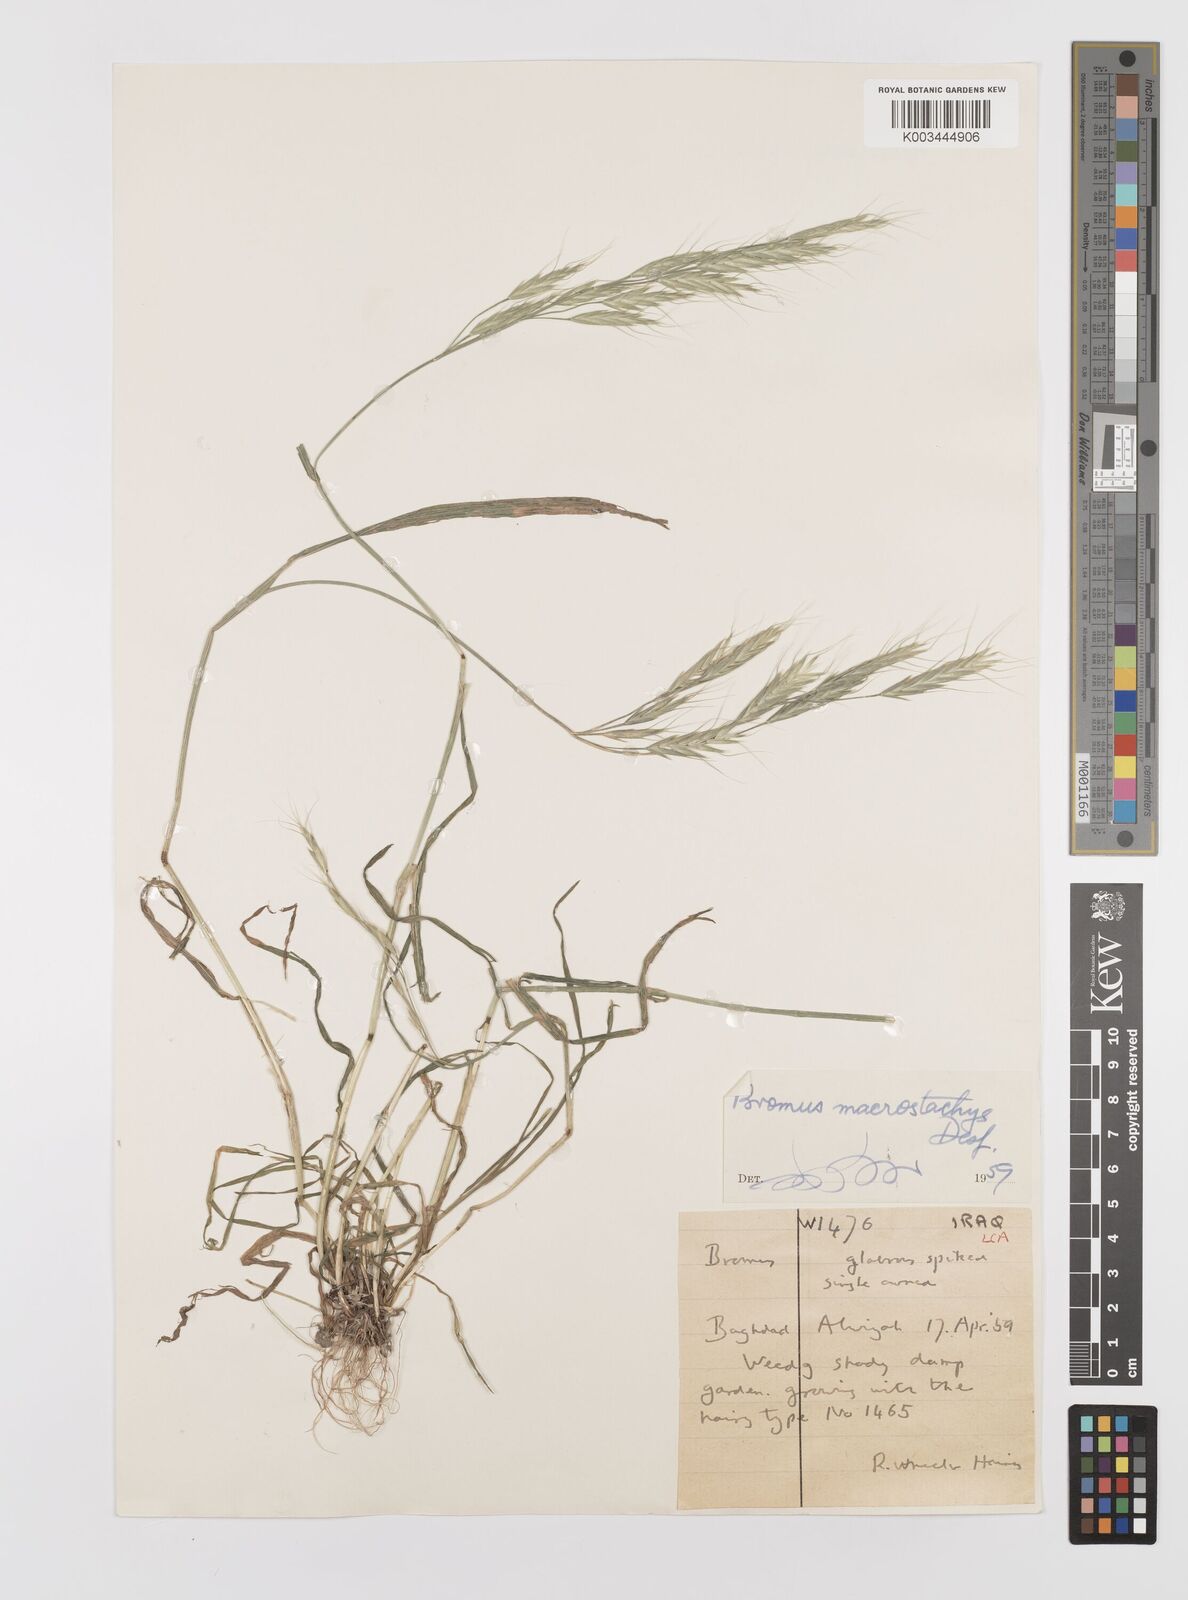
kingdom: Plantae
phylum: Tracheophyta
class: Liliopsida
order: Poales
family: Poaceae
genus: Bromus
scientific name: Bromus lanceolatus
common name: Mediterranean brome
